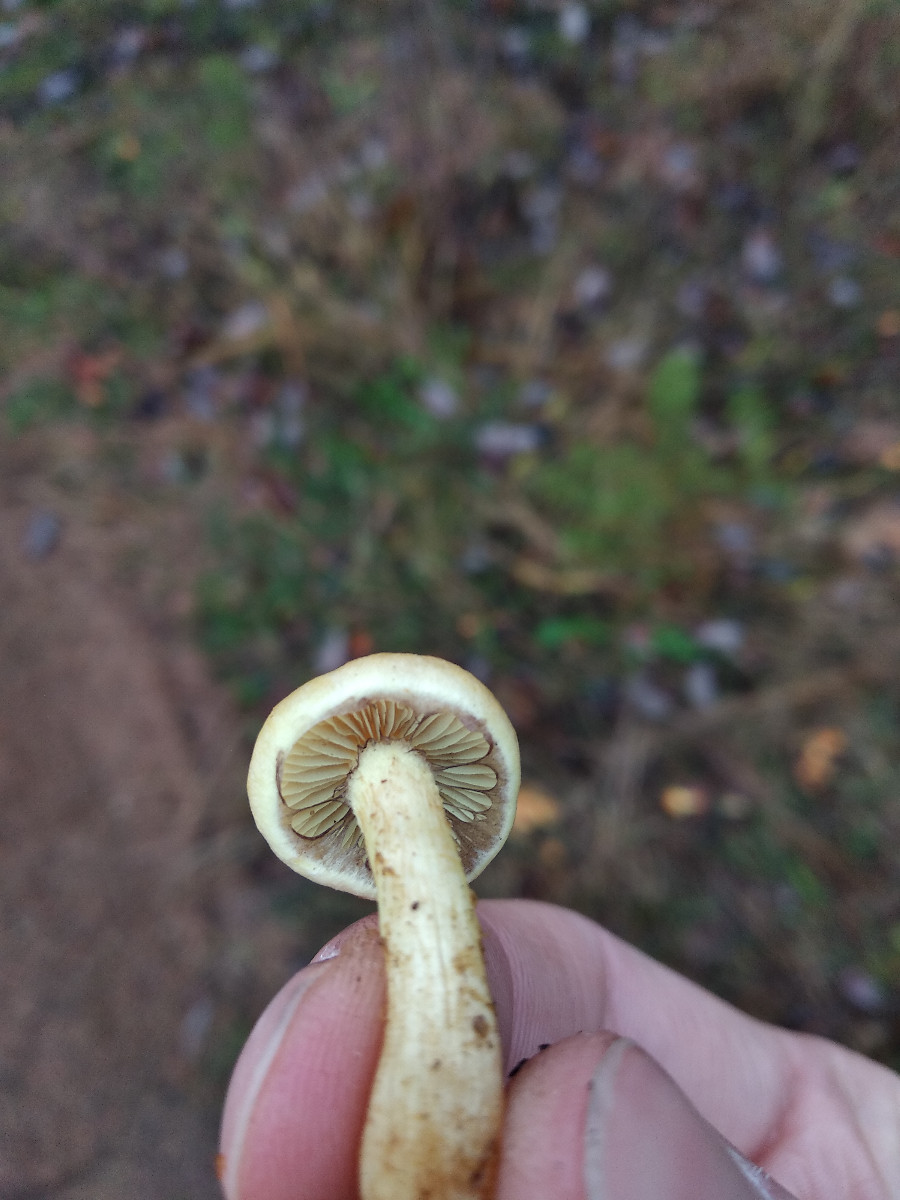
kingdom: Fungi
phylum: Basidiomycota
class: Agaricomycetes
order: Agaricales
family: Strophariaceae
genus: Hypholoma
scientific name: Hypholoma
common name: svovlhat
